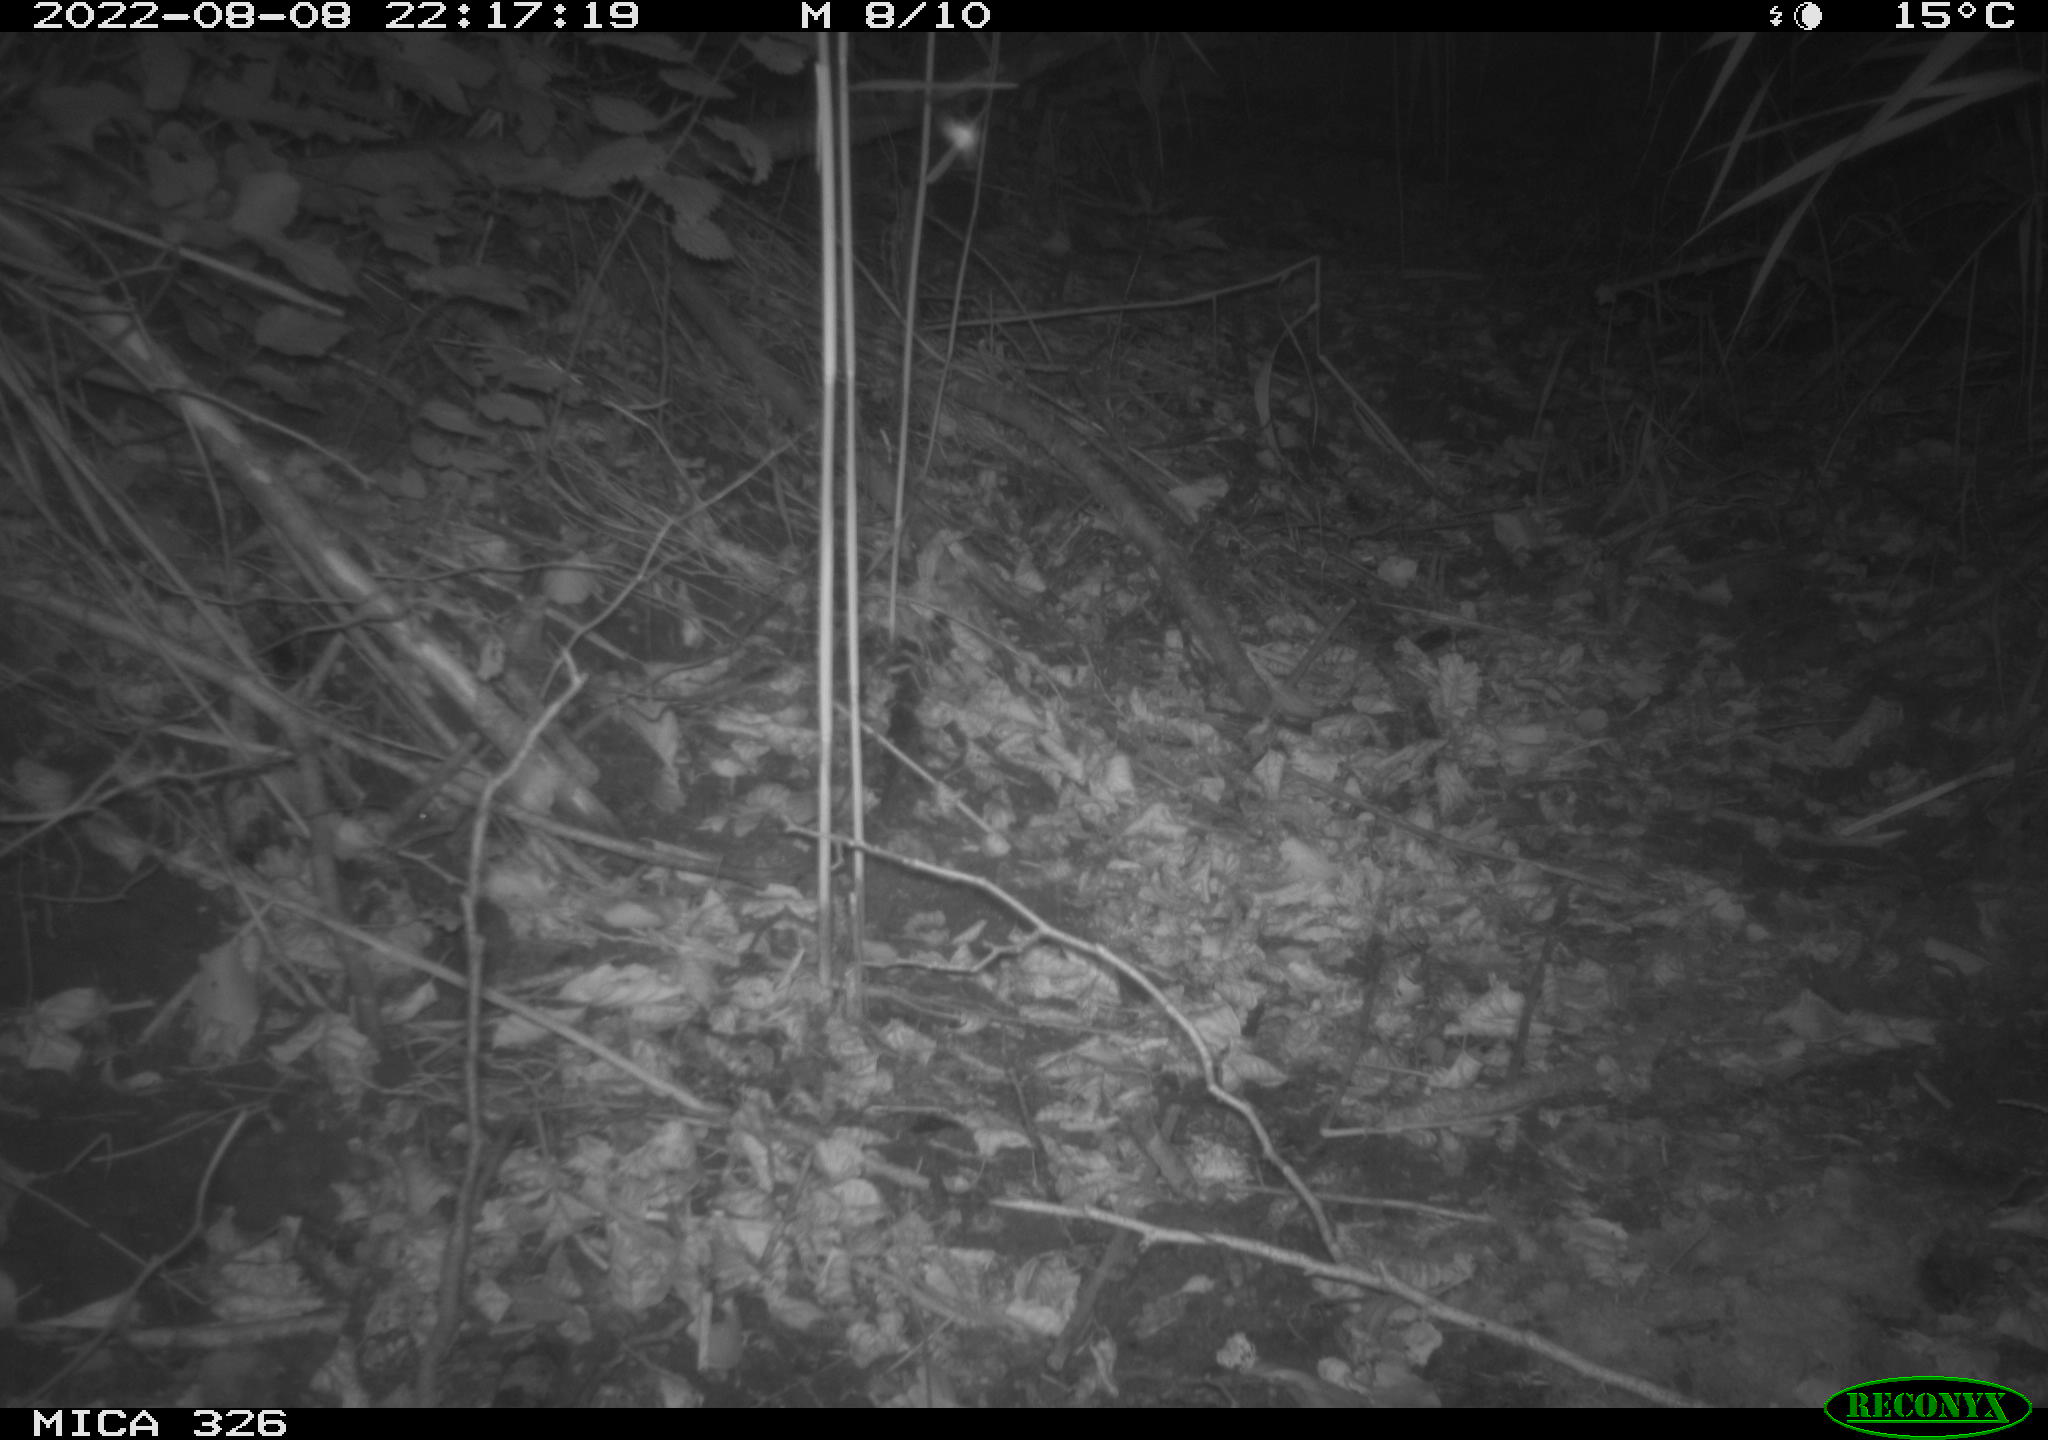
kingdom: Animalia
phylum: Chordata
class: Mammalia
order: Rodentia
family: Muridae
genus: Rattus
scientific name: Rattus norvegicus
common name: Brown rat
